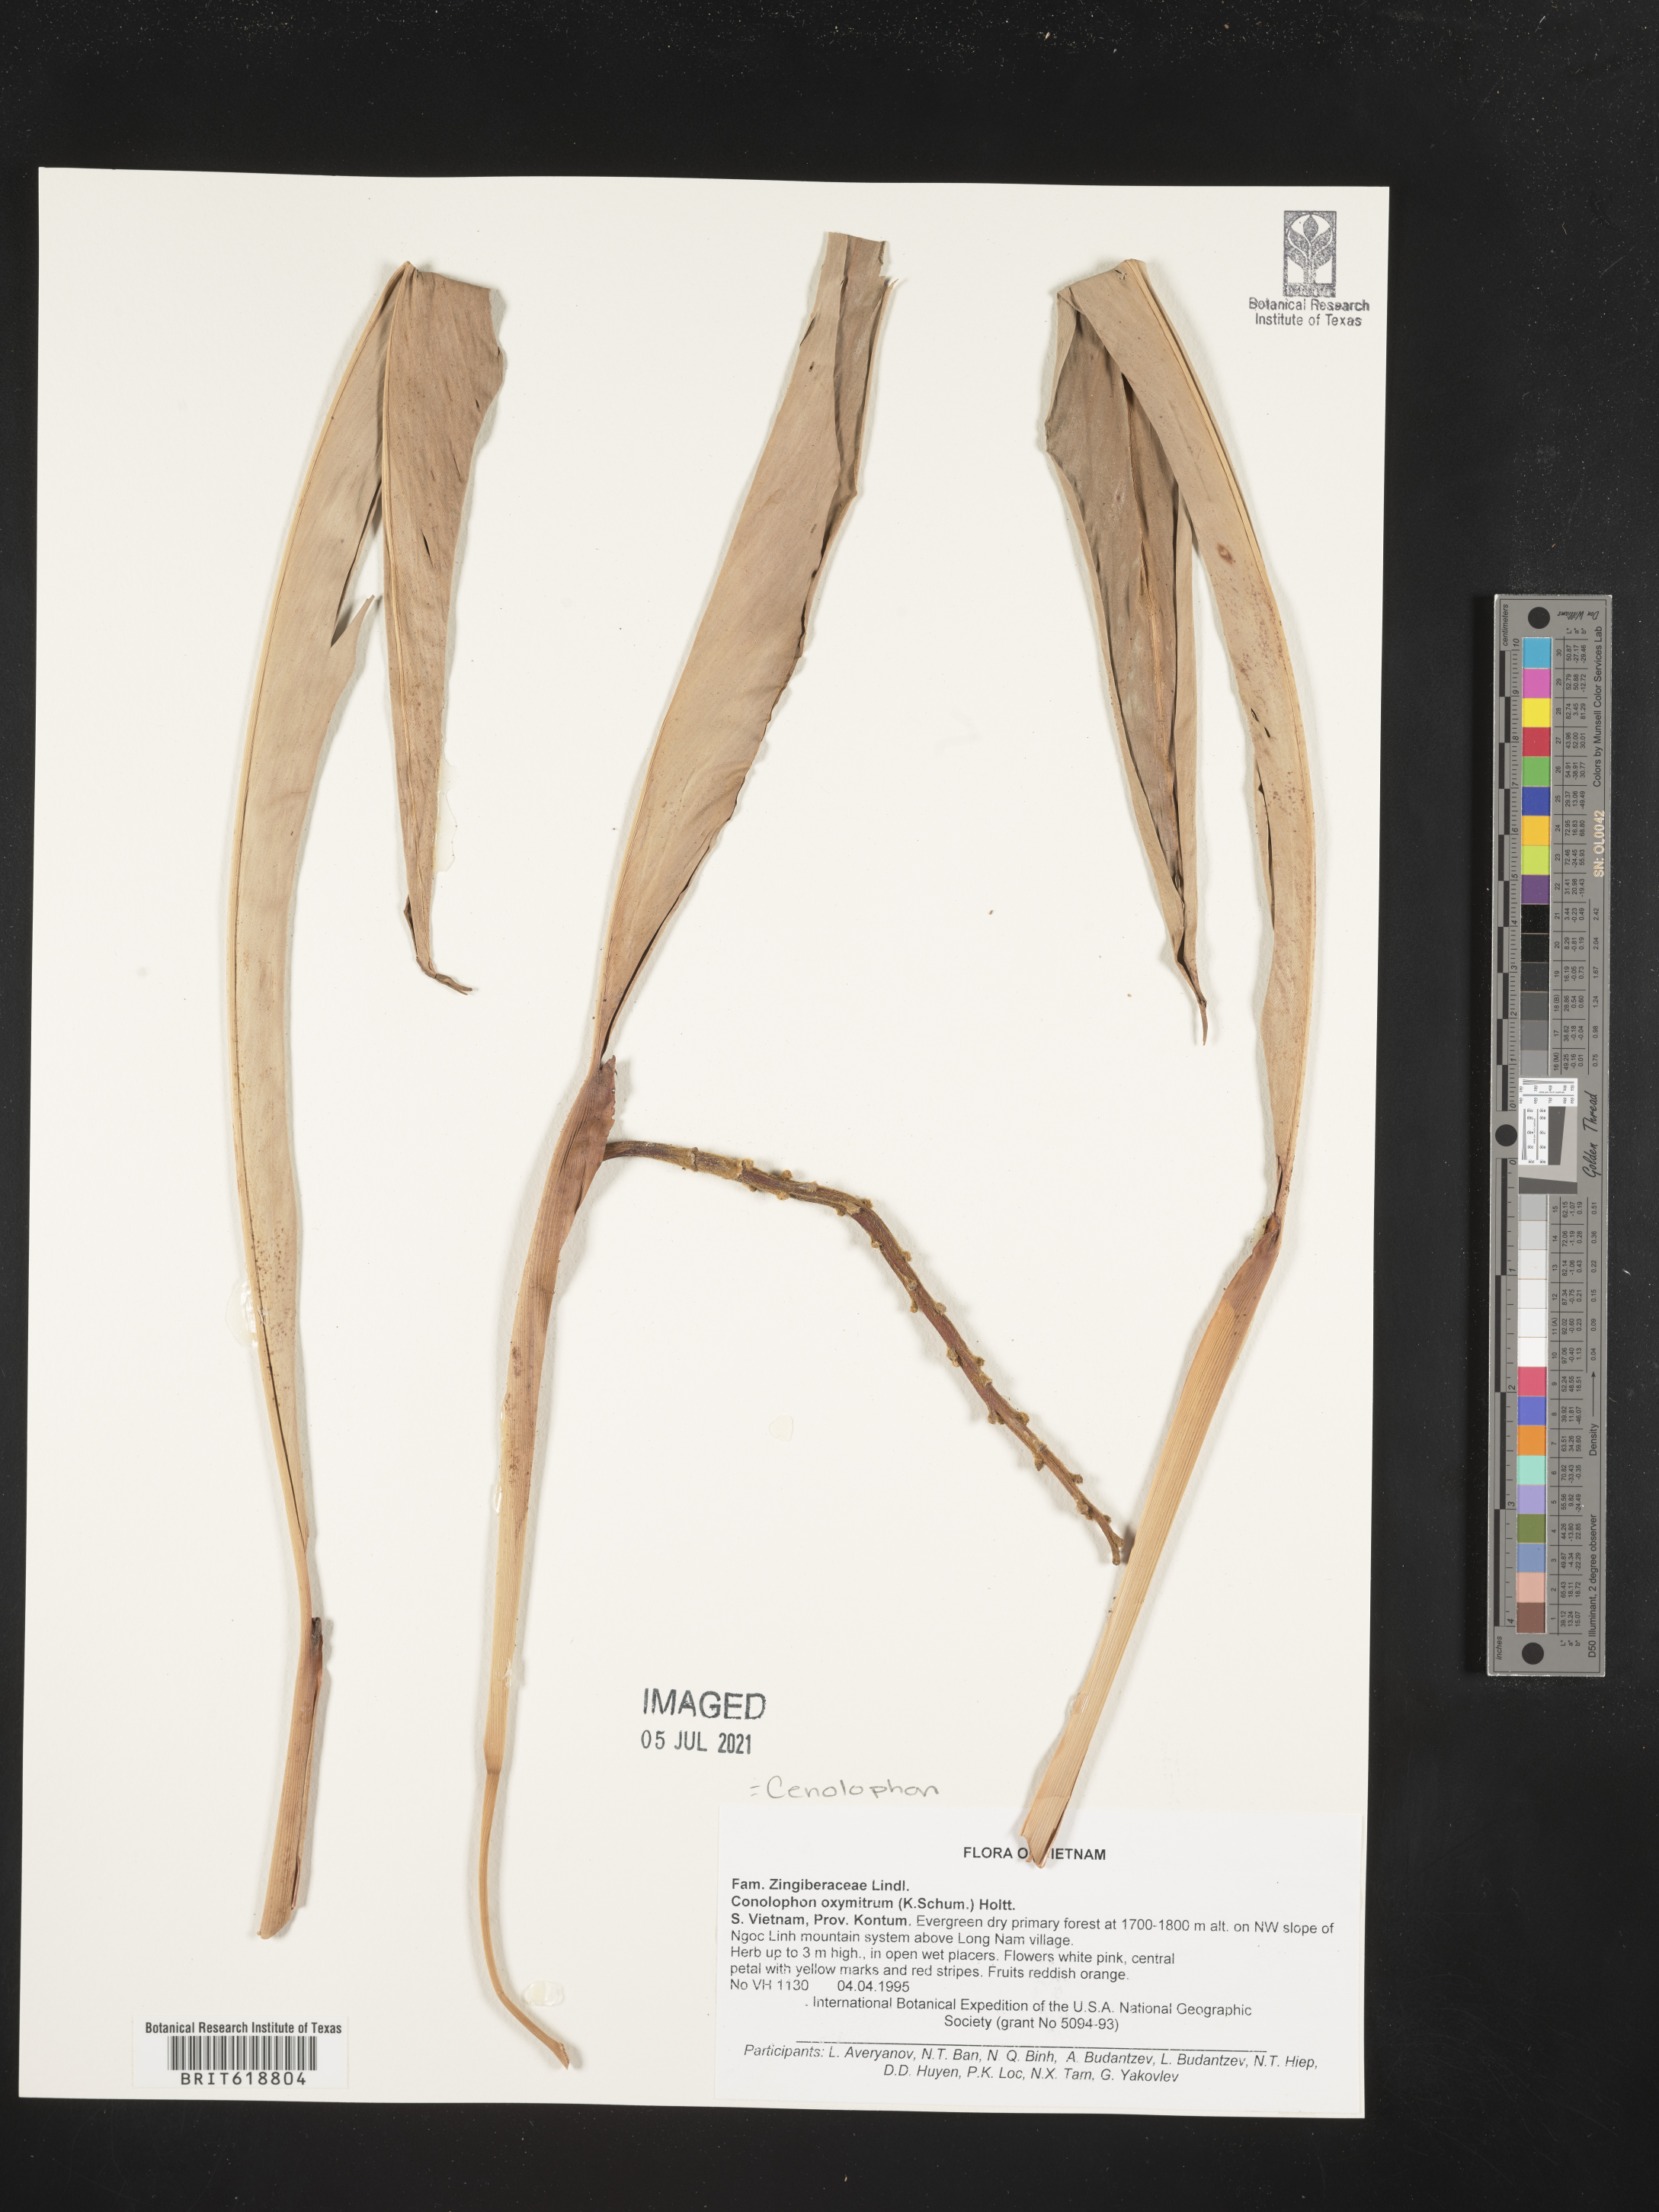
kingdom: Plantae
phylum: Tracheophyta
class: Liliopsida
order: Zingiberales
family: Zingiberaceae
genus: Alpinia
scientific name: Alpinia oxymitra
